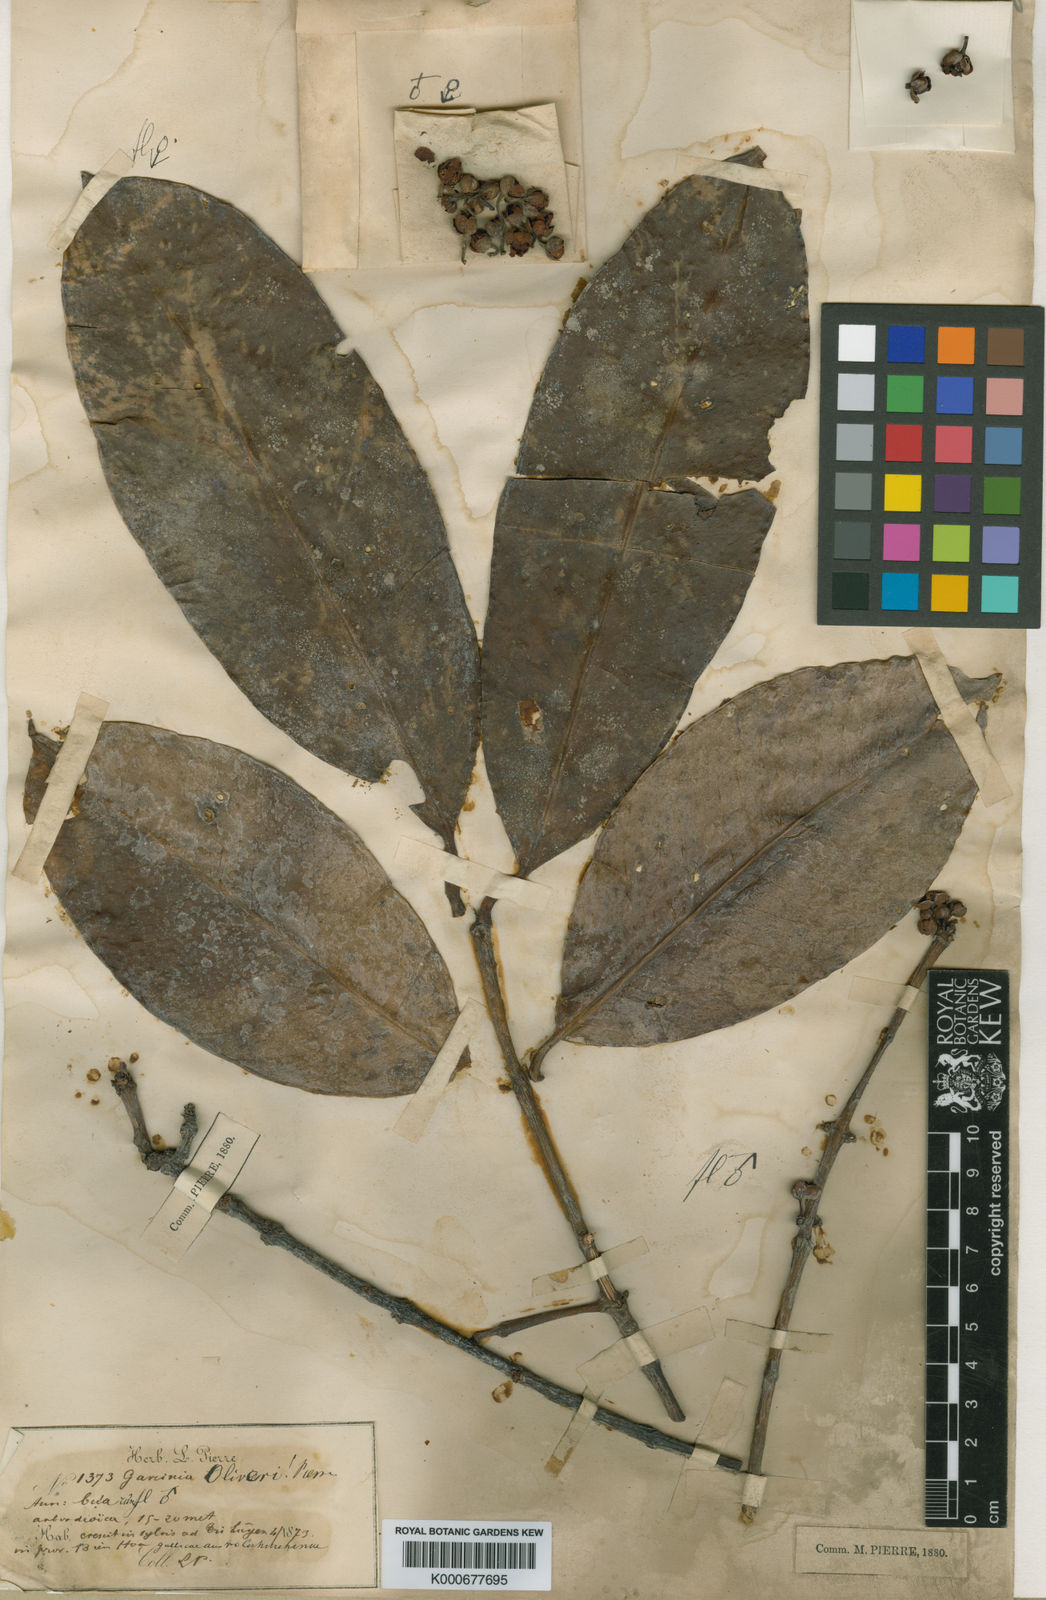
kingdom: Plantae
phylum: Tracheophyta
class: Magnoliopsida
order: Malpighiales
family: Clusiaceae
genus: Garcinia
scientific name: Garcinia oliveri
